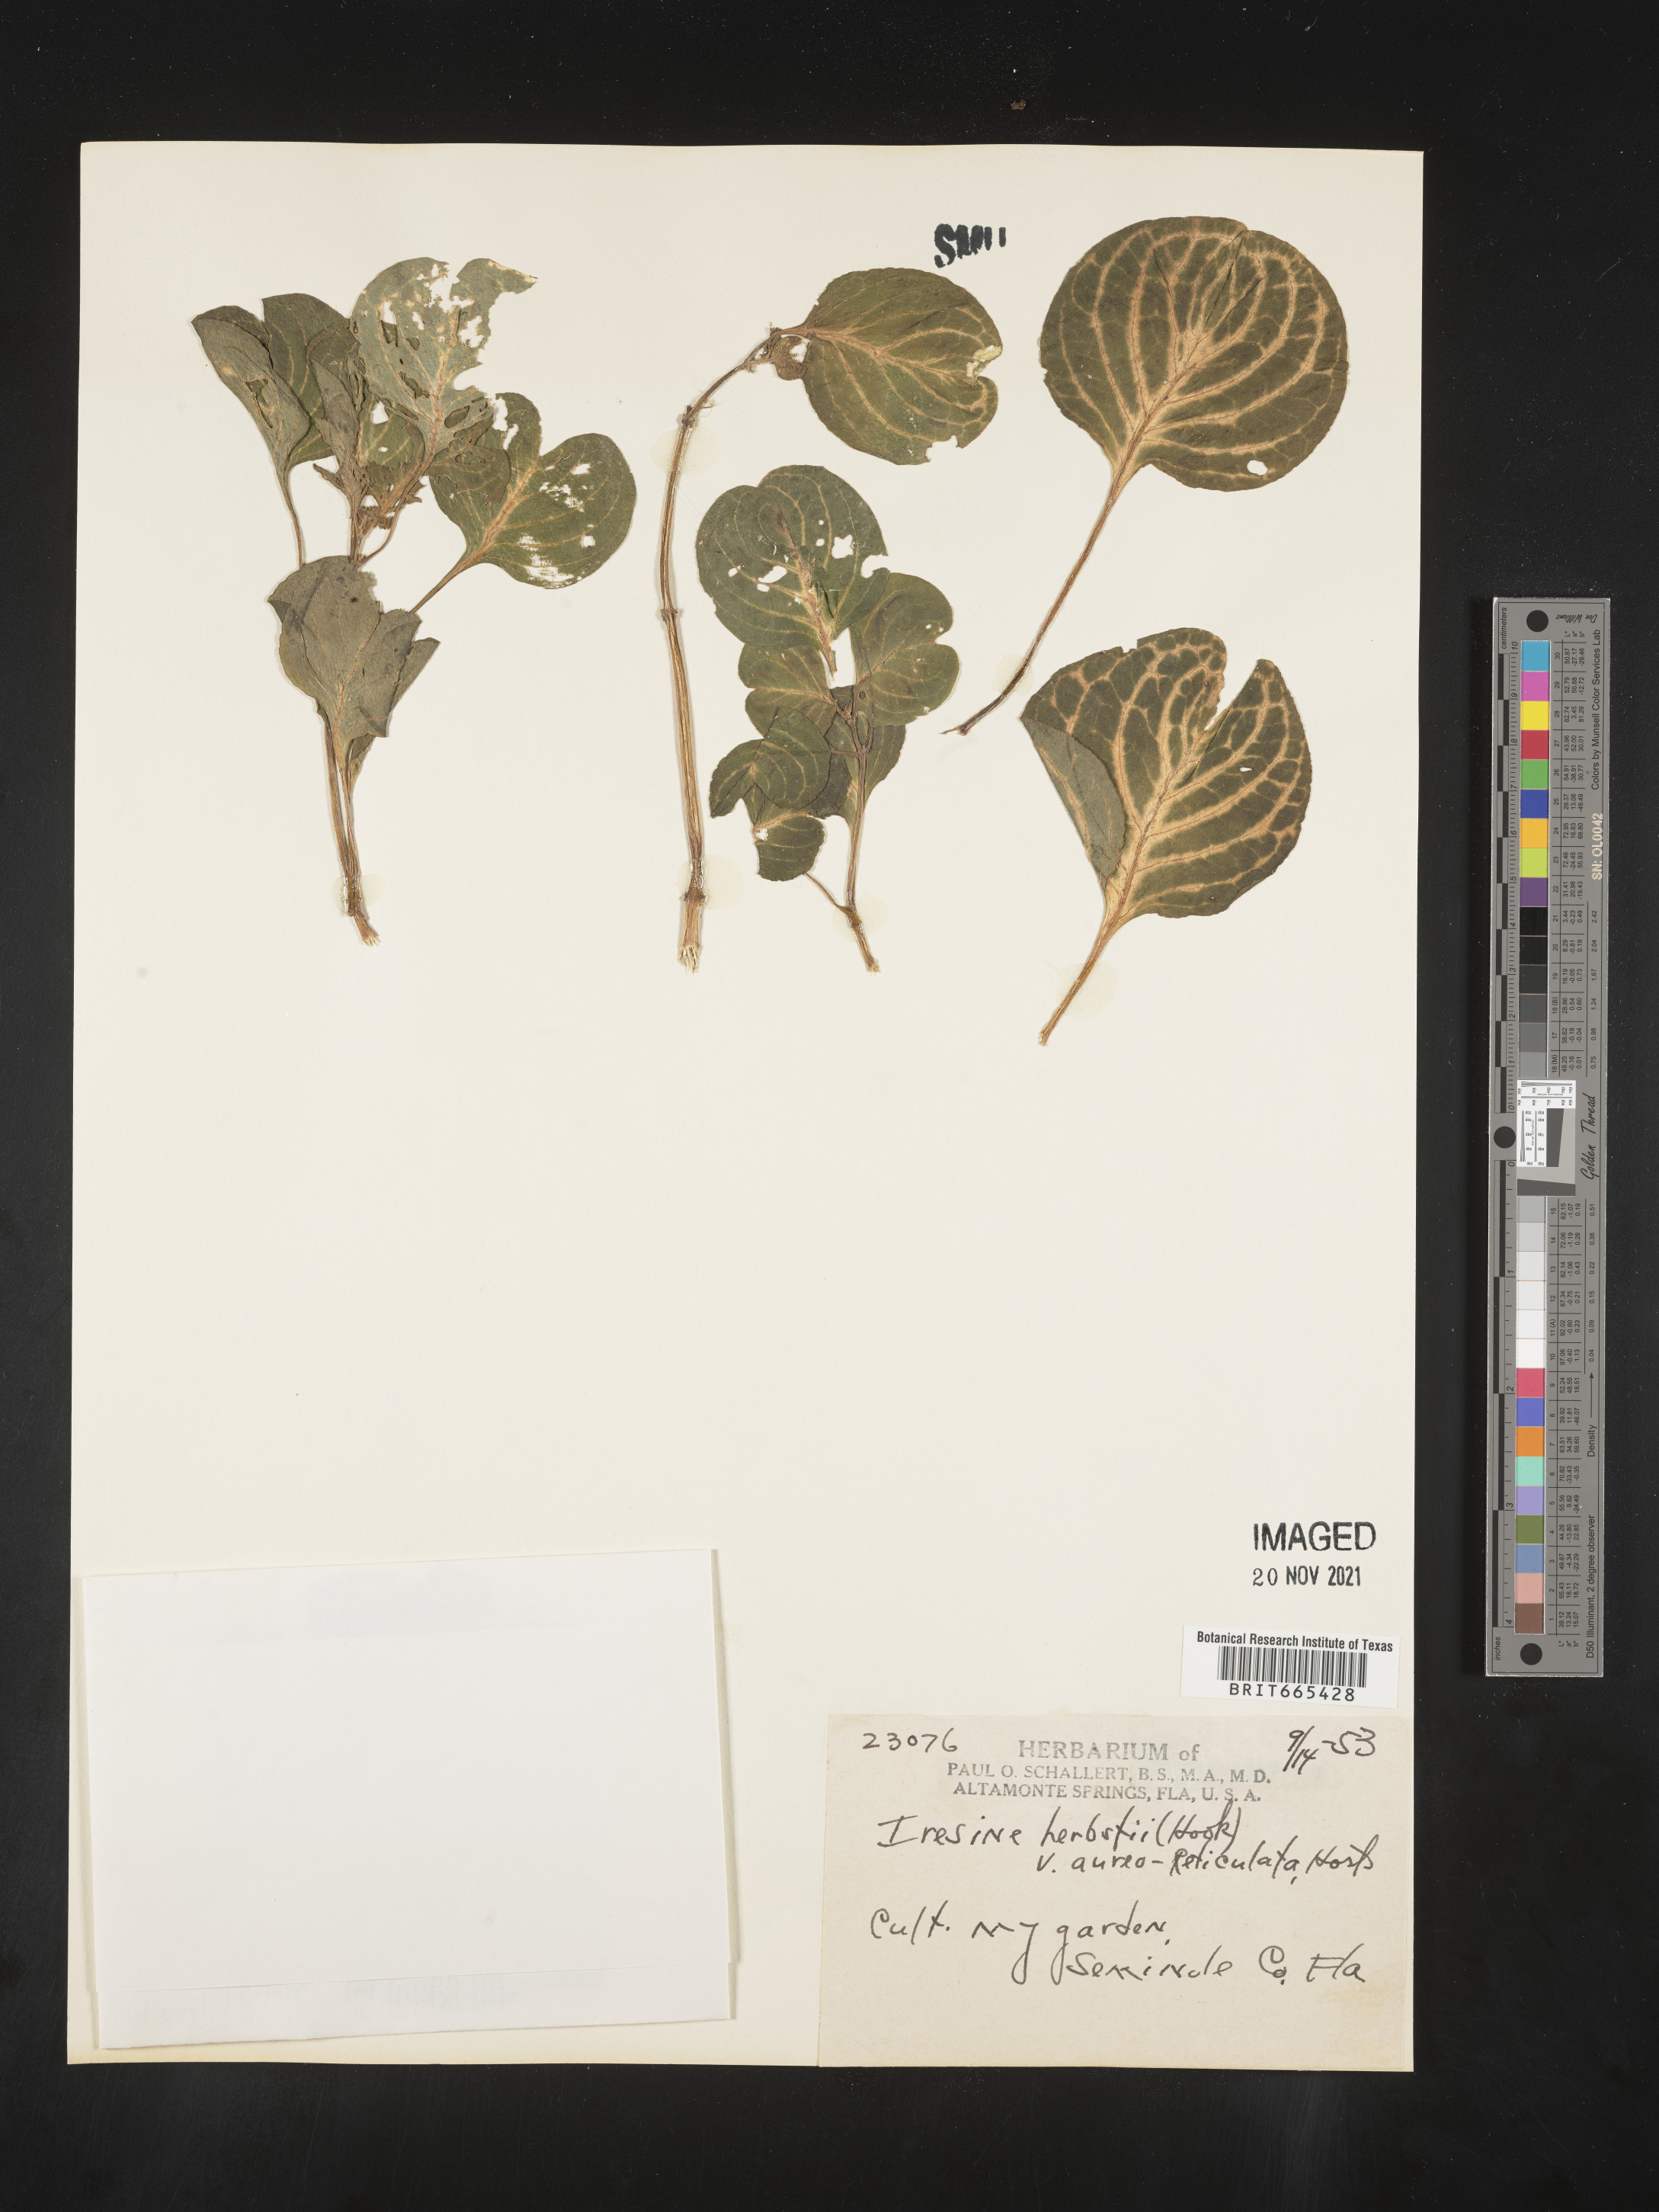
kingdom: Plantae
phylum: Tracheophyta
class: Magnoliopsida
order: Caryophyllales
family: Amaranthaceae
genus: Iresine
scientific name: Iresine
